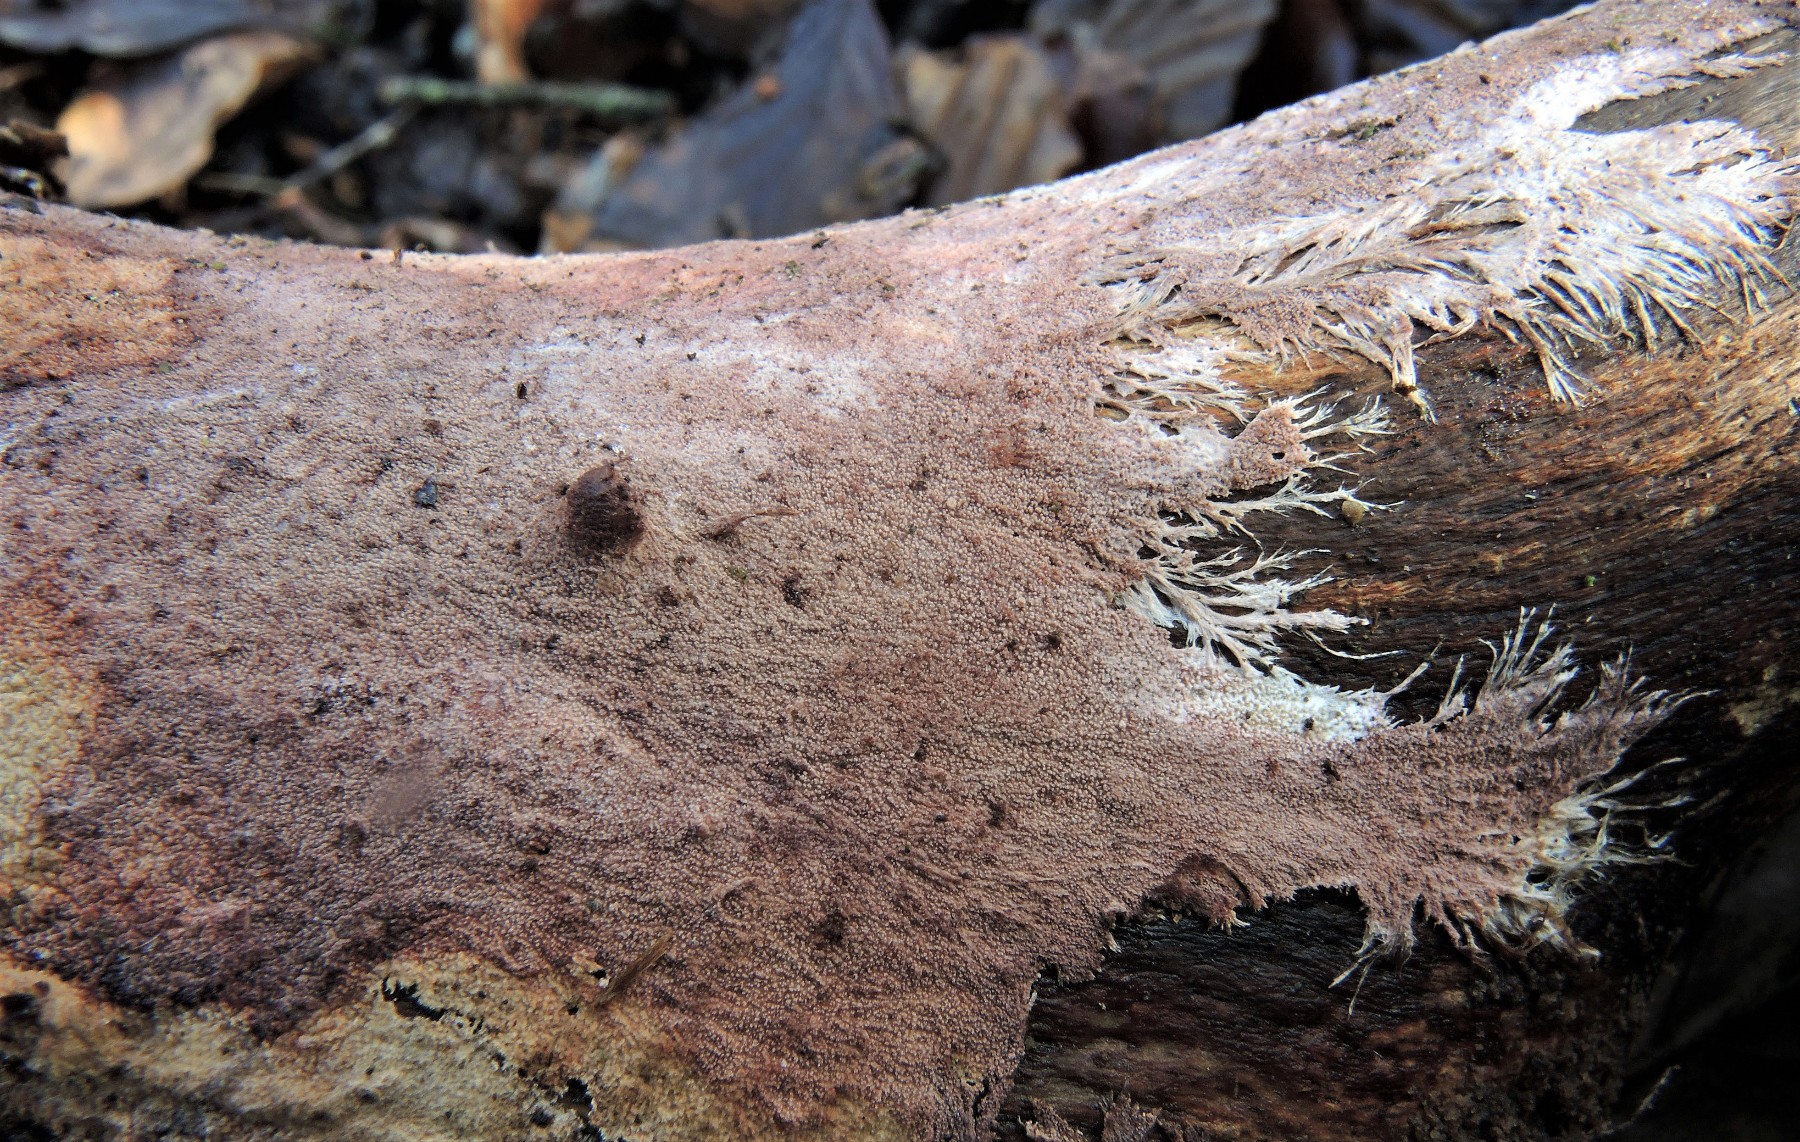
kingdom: Fungi
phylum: Basidiomycota
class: Agaricomycetes
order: Polyporales
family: Steccherinaceae
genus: Steccherinum
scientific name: Steccherinum fimbriatum
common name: trådet skønpig
